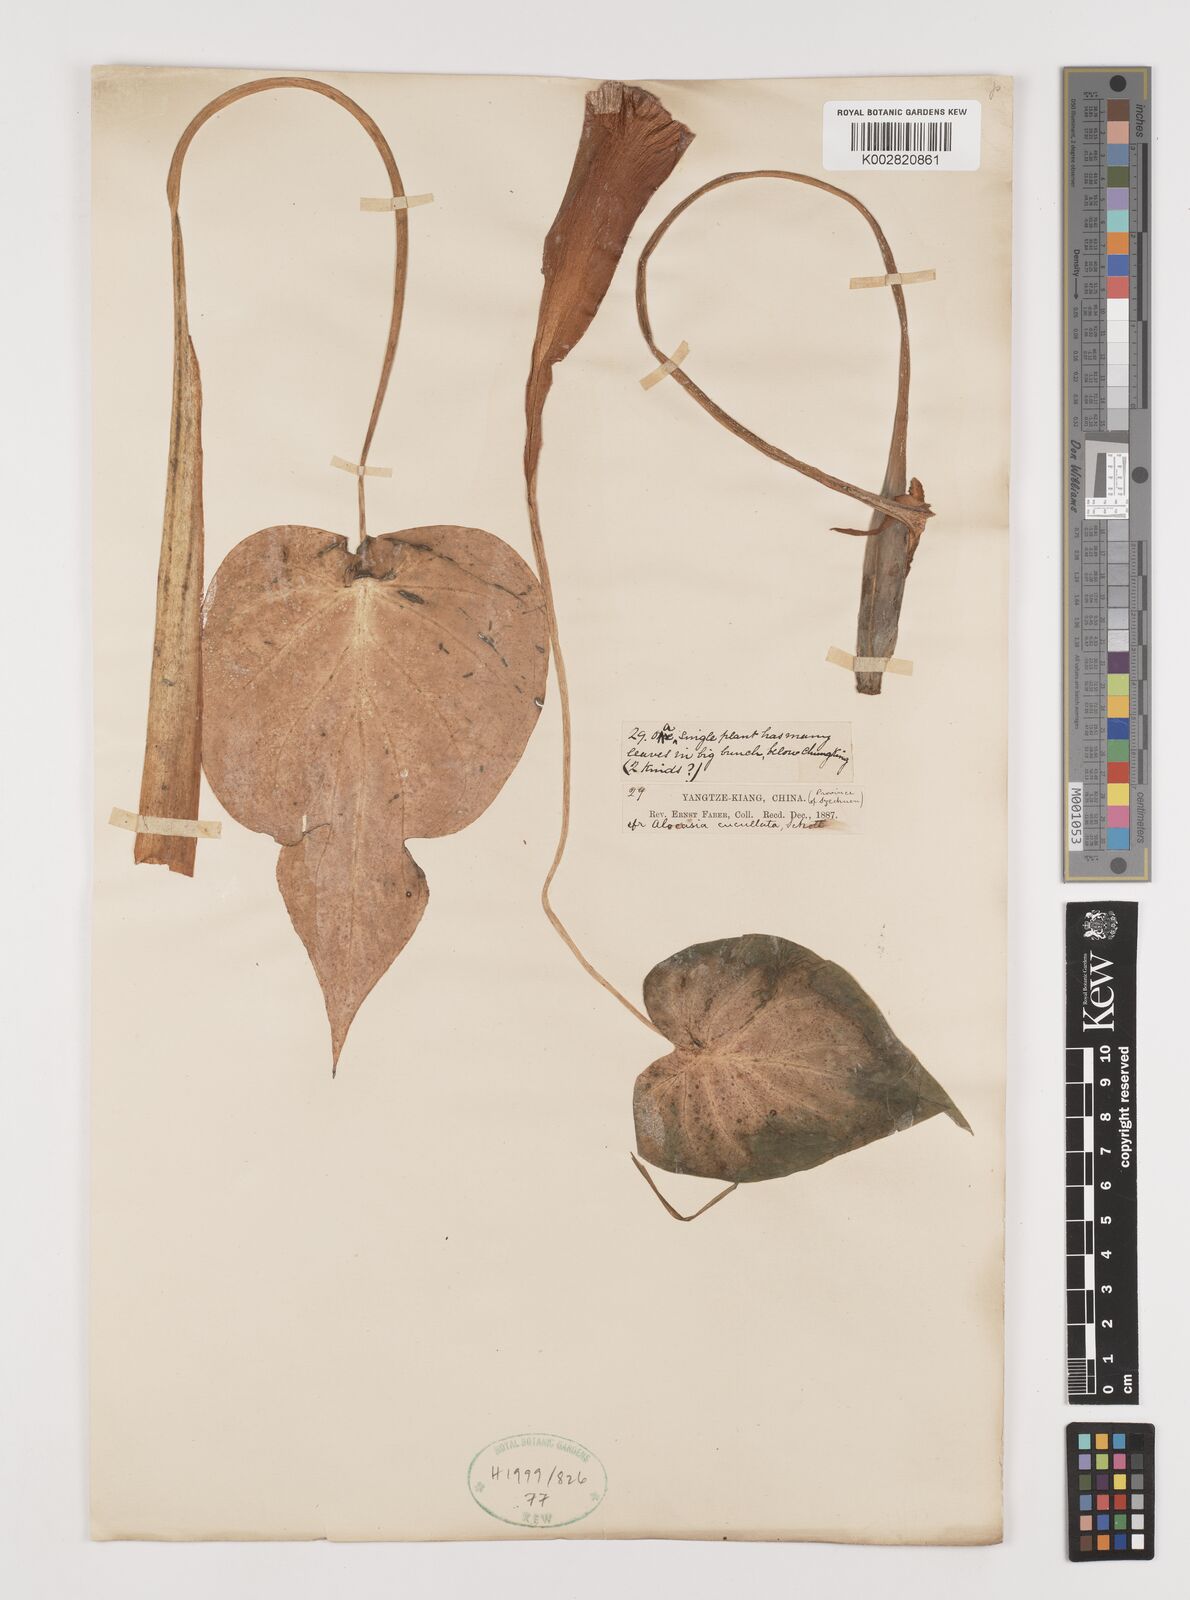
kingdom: Plantae
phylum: Tracheophyta
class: Liliopsida
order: Alismatales
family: Araceae
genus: Alocasia
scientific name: Alocasia cucullata
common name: Buddha's hand
